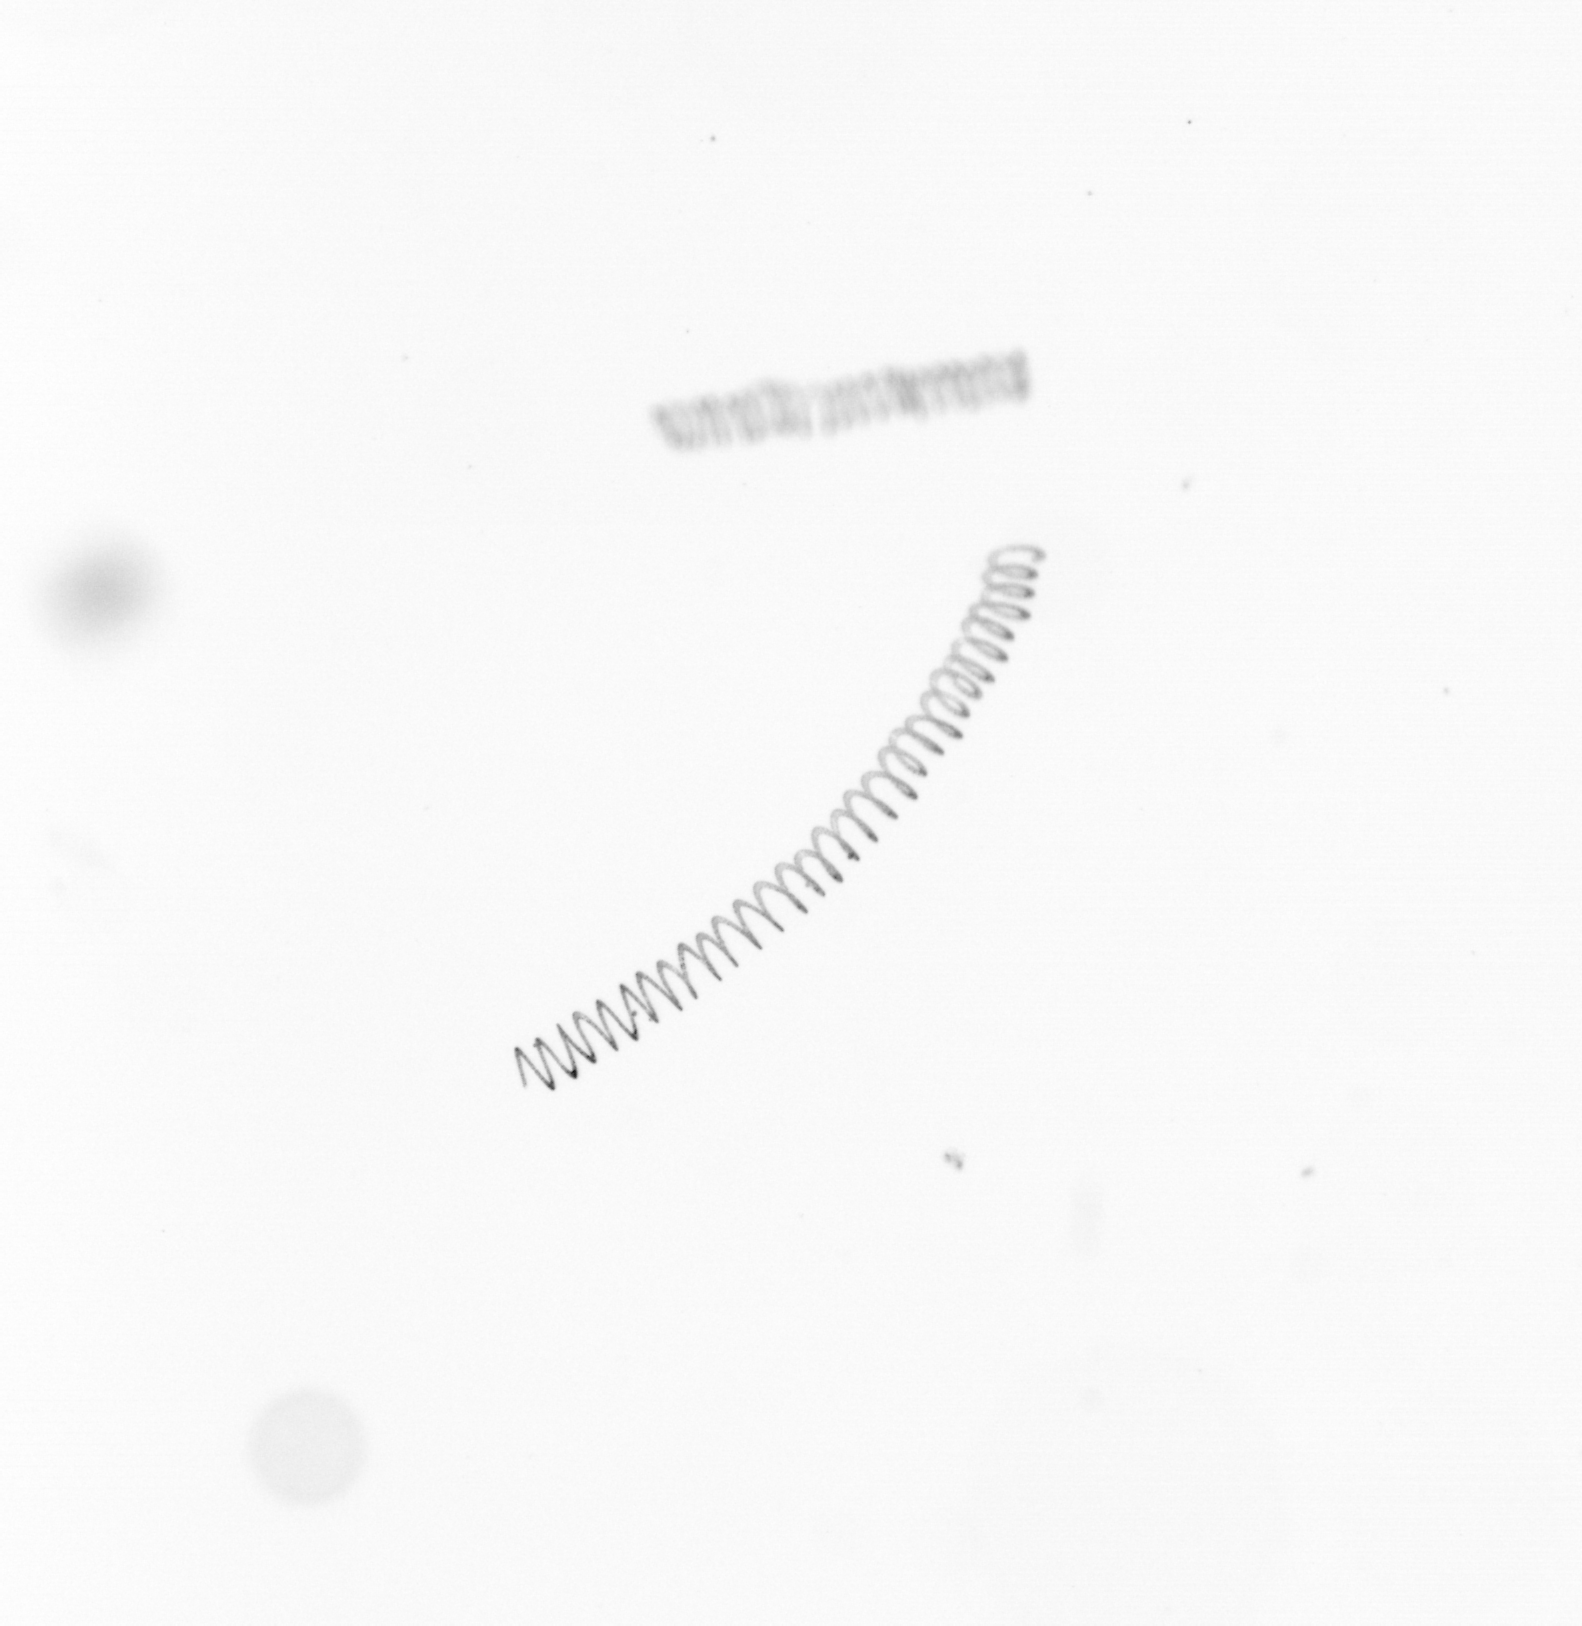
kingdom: Chromista
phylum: Ochrophyta
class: Bacillariophyceae
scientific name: Bacillariophyceae
